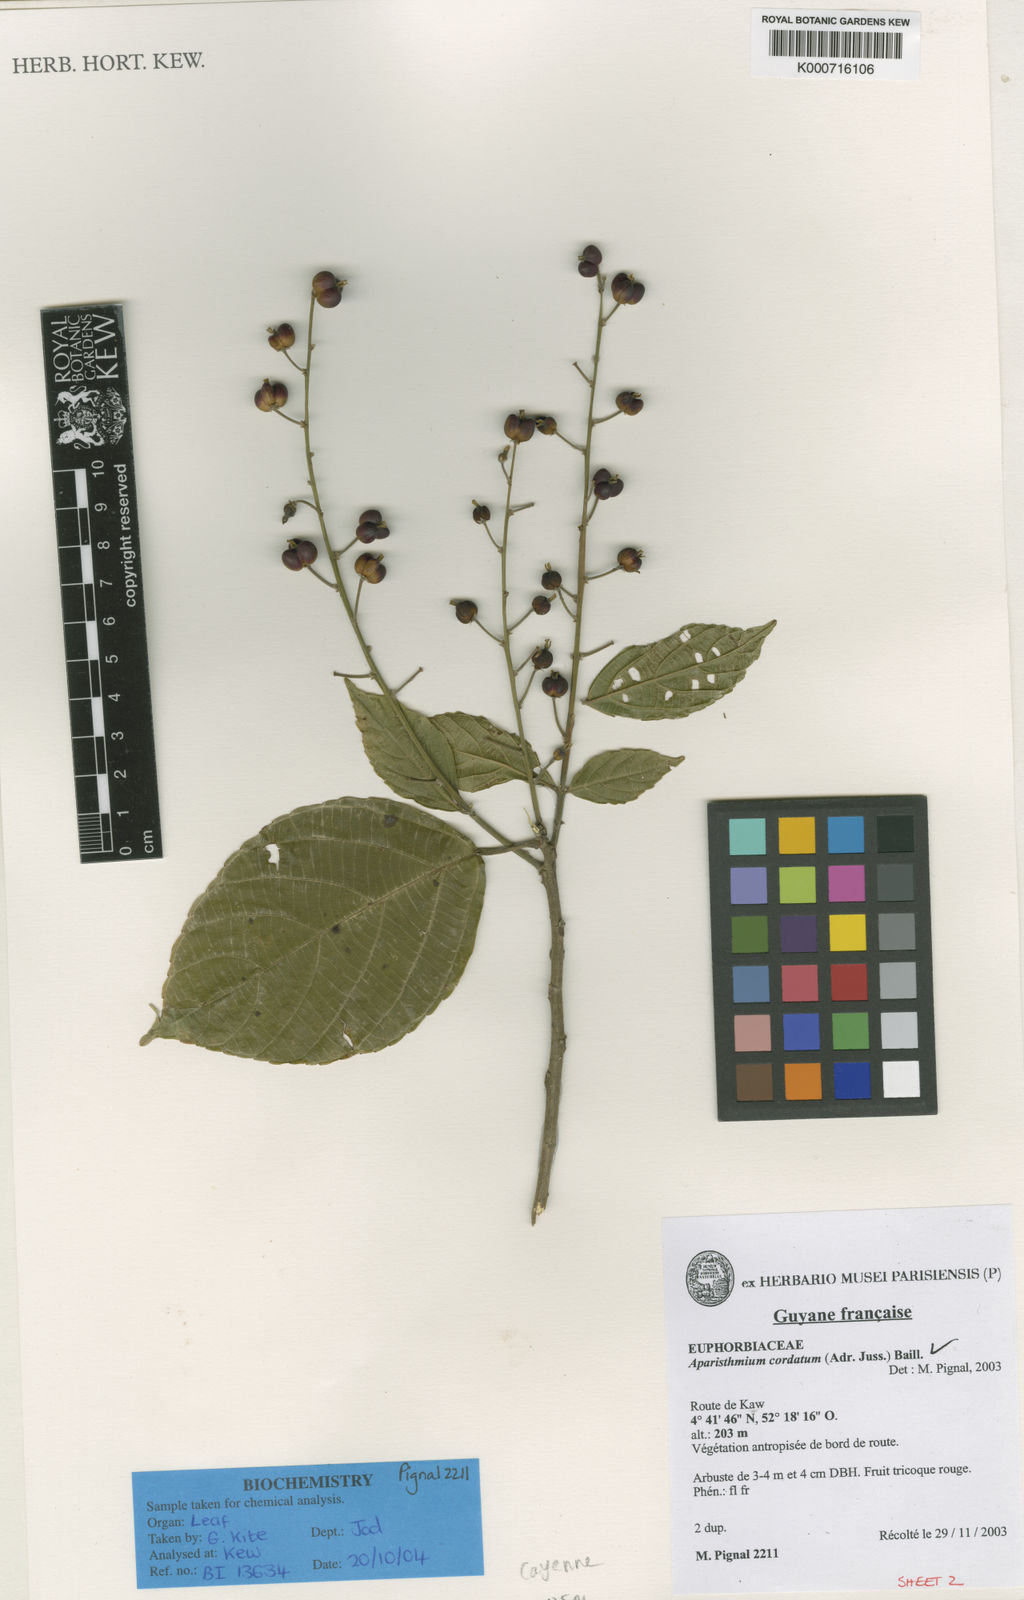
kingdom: Plantae
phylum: Tracheophyta
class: Magnoliopsida
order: Malpighiales
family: Euphorbiaceae
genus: Aparisthmium
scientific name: Aparisthmium cordatum
